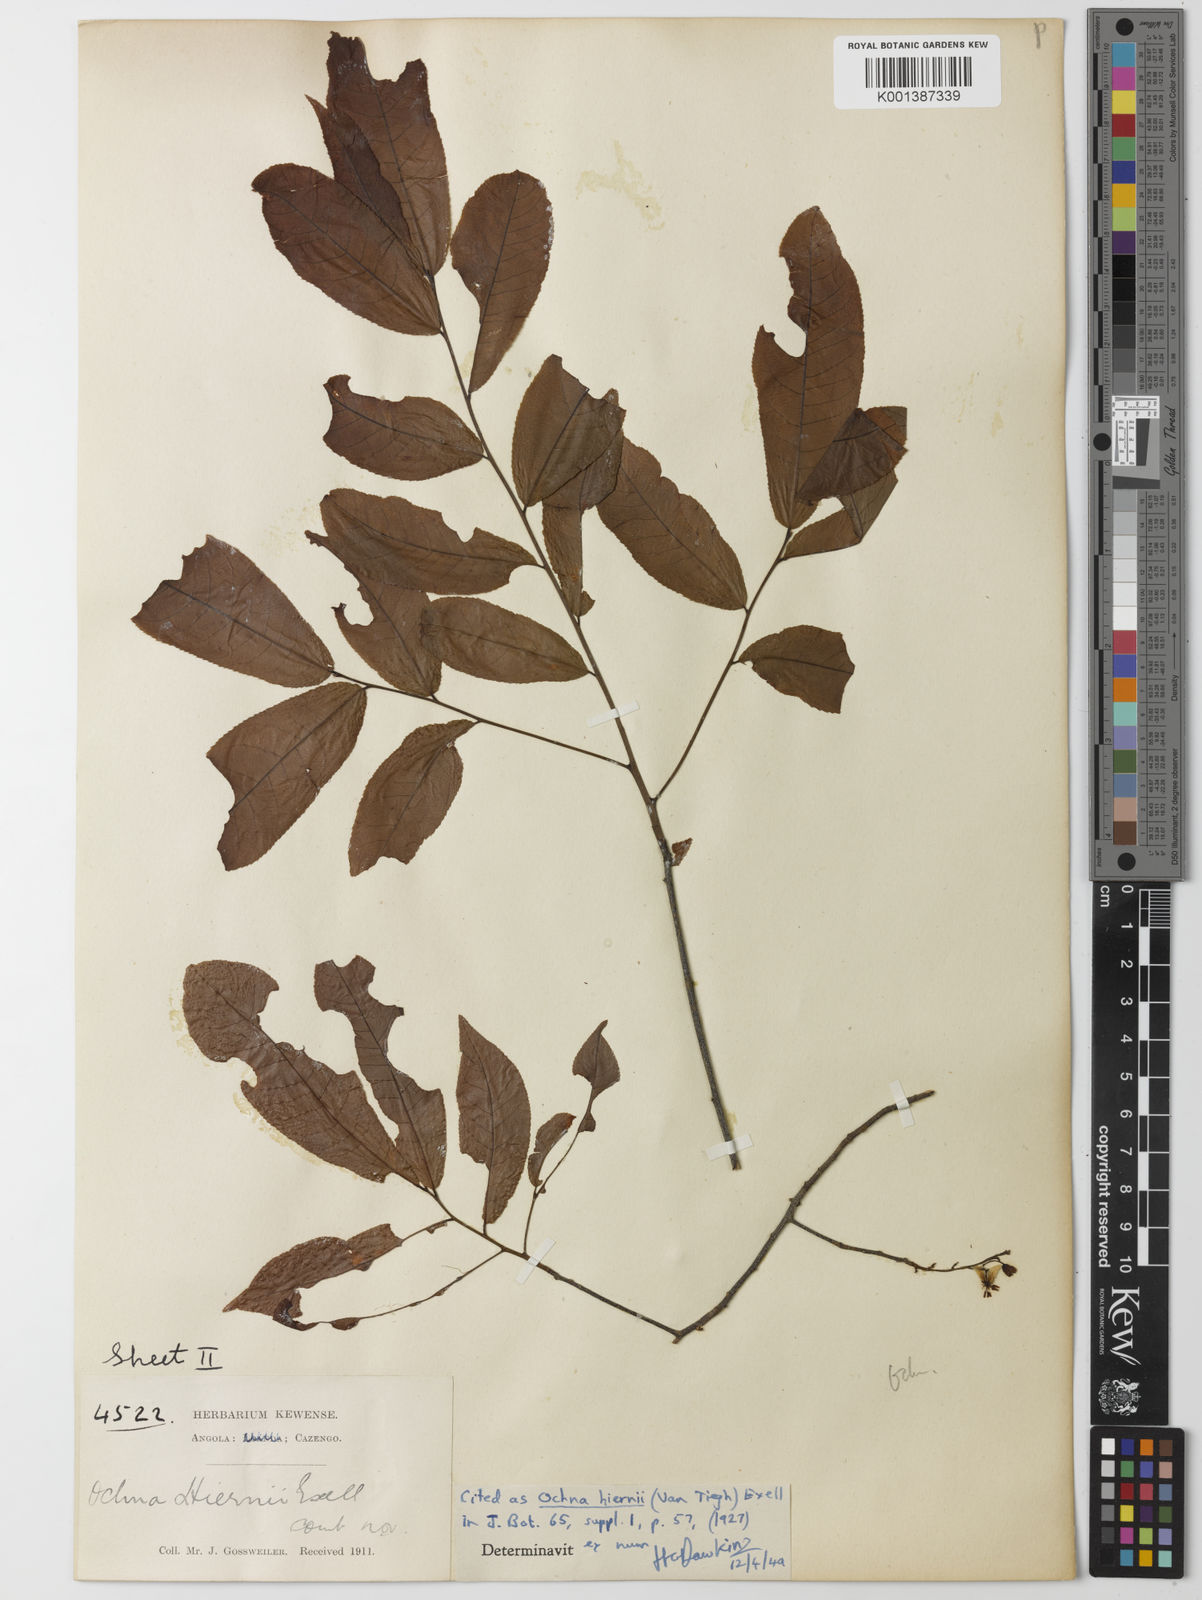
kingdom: Plantae
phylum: Tracheophyta
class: Magnoliopsida
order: Malpighiales
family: Ochnaceae
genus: Ochna
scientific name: Ochna membranacea
